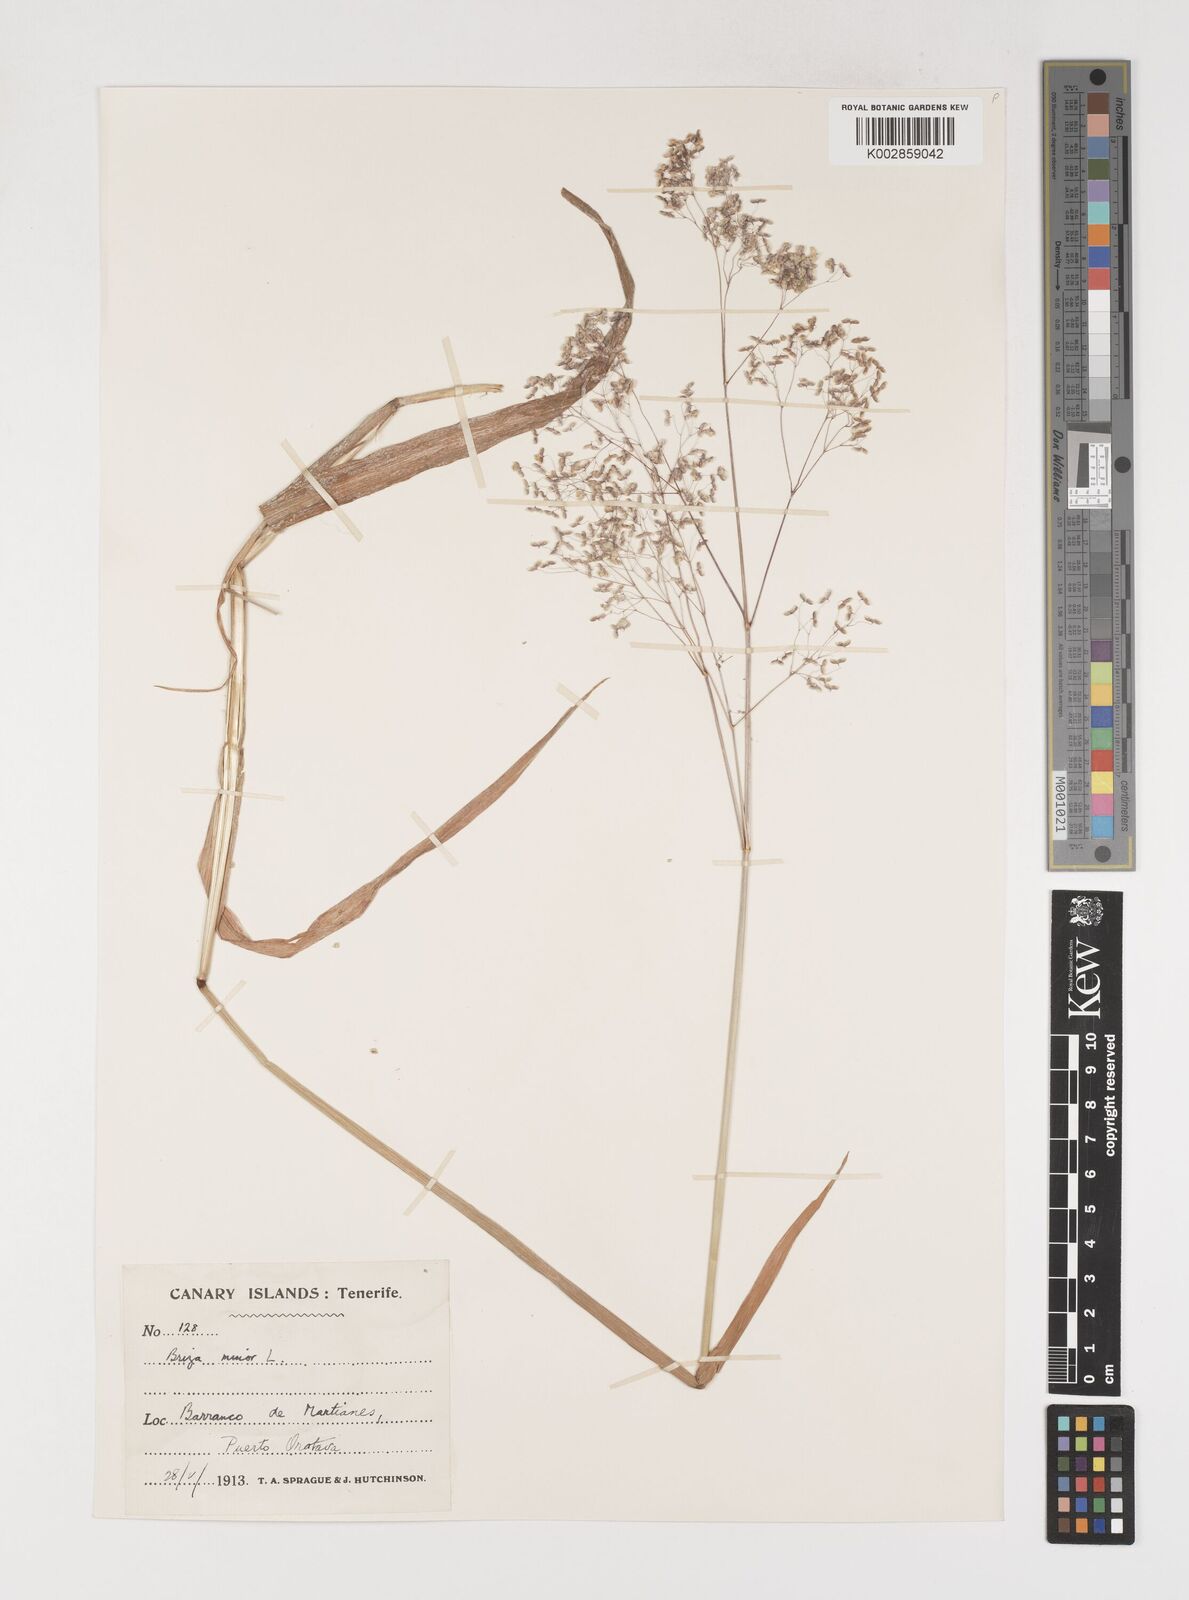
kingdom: Plantae
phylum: Tracheophyta
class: Liliopsida
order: Poales
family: Poaceae
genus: Briza
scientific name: Briza minor
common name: Lesser quaking-grass
